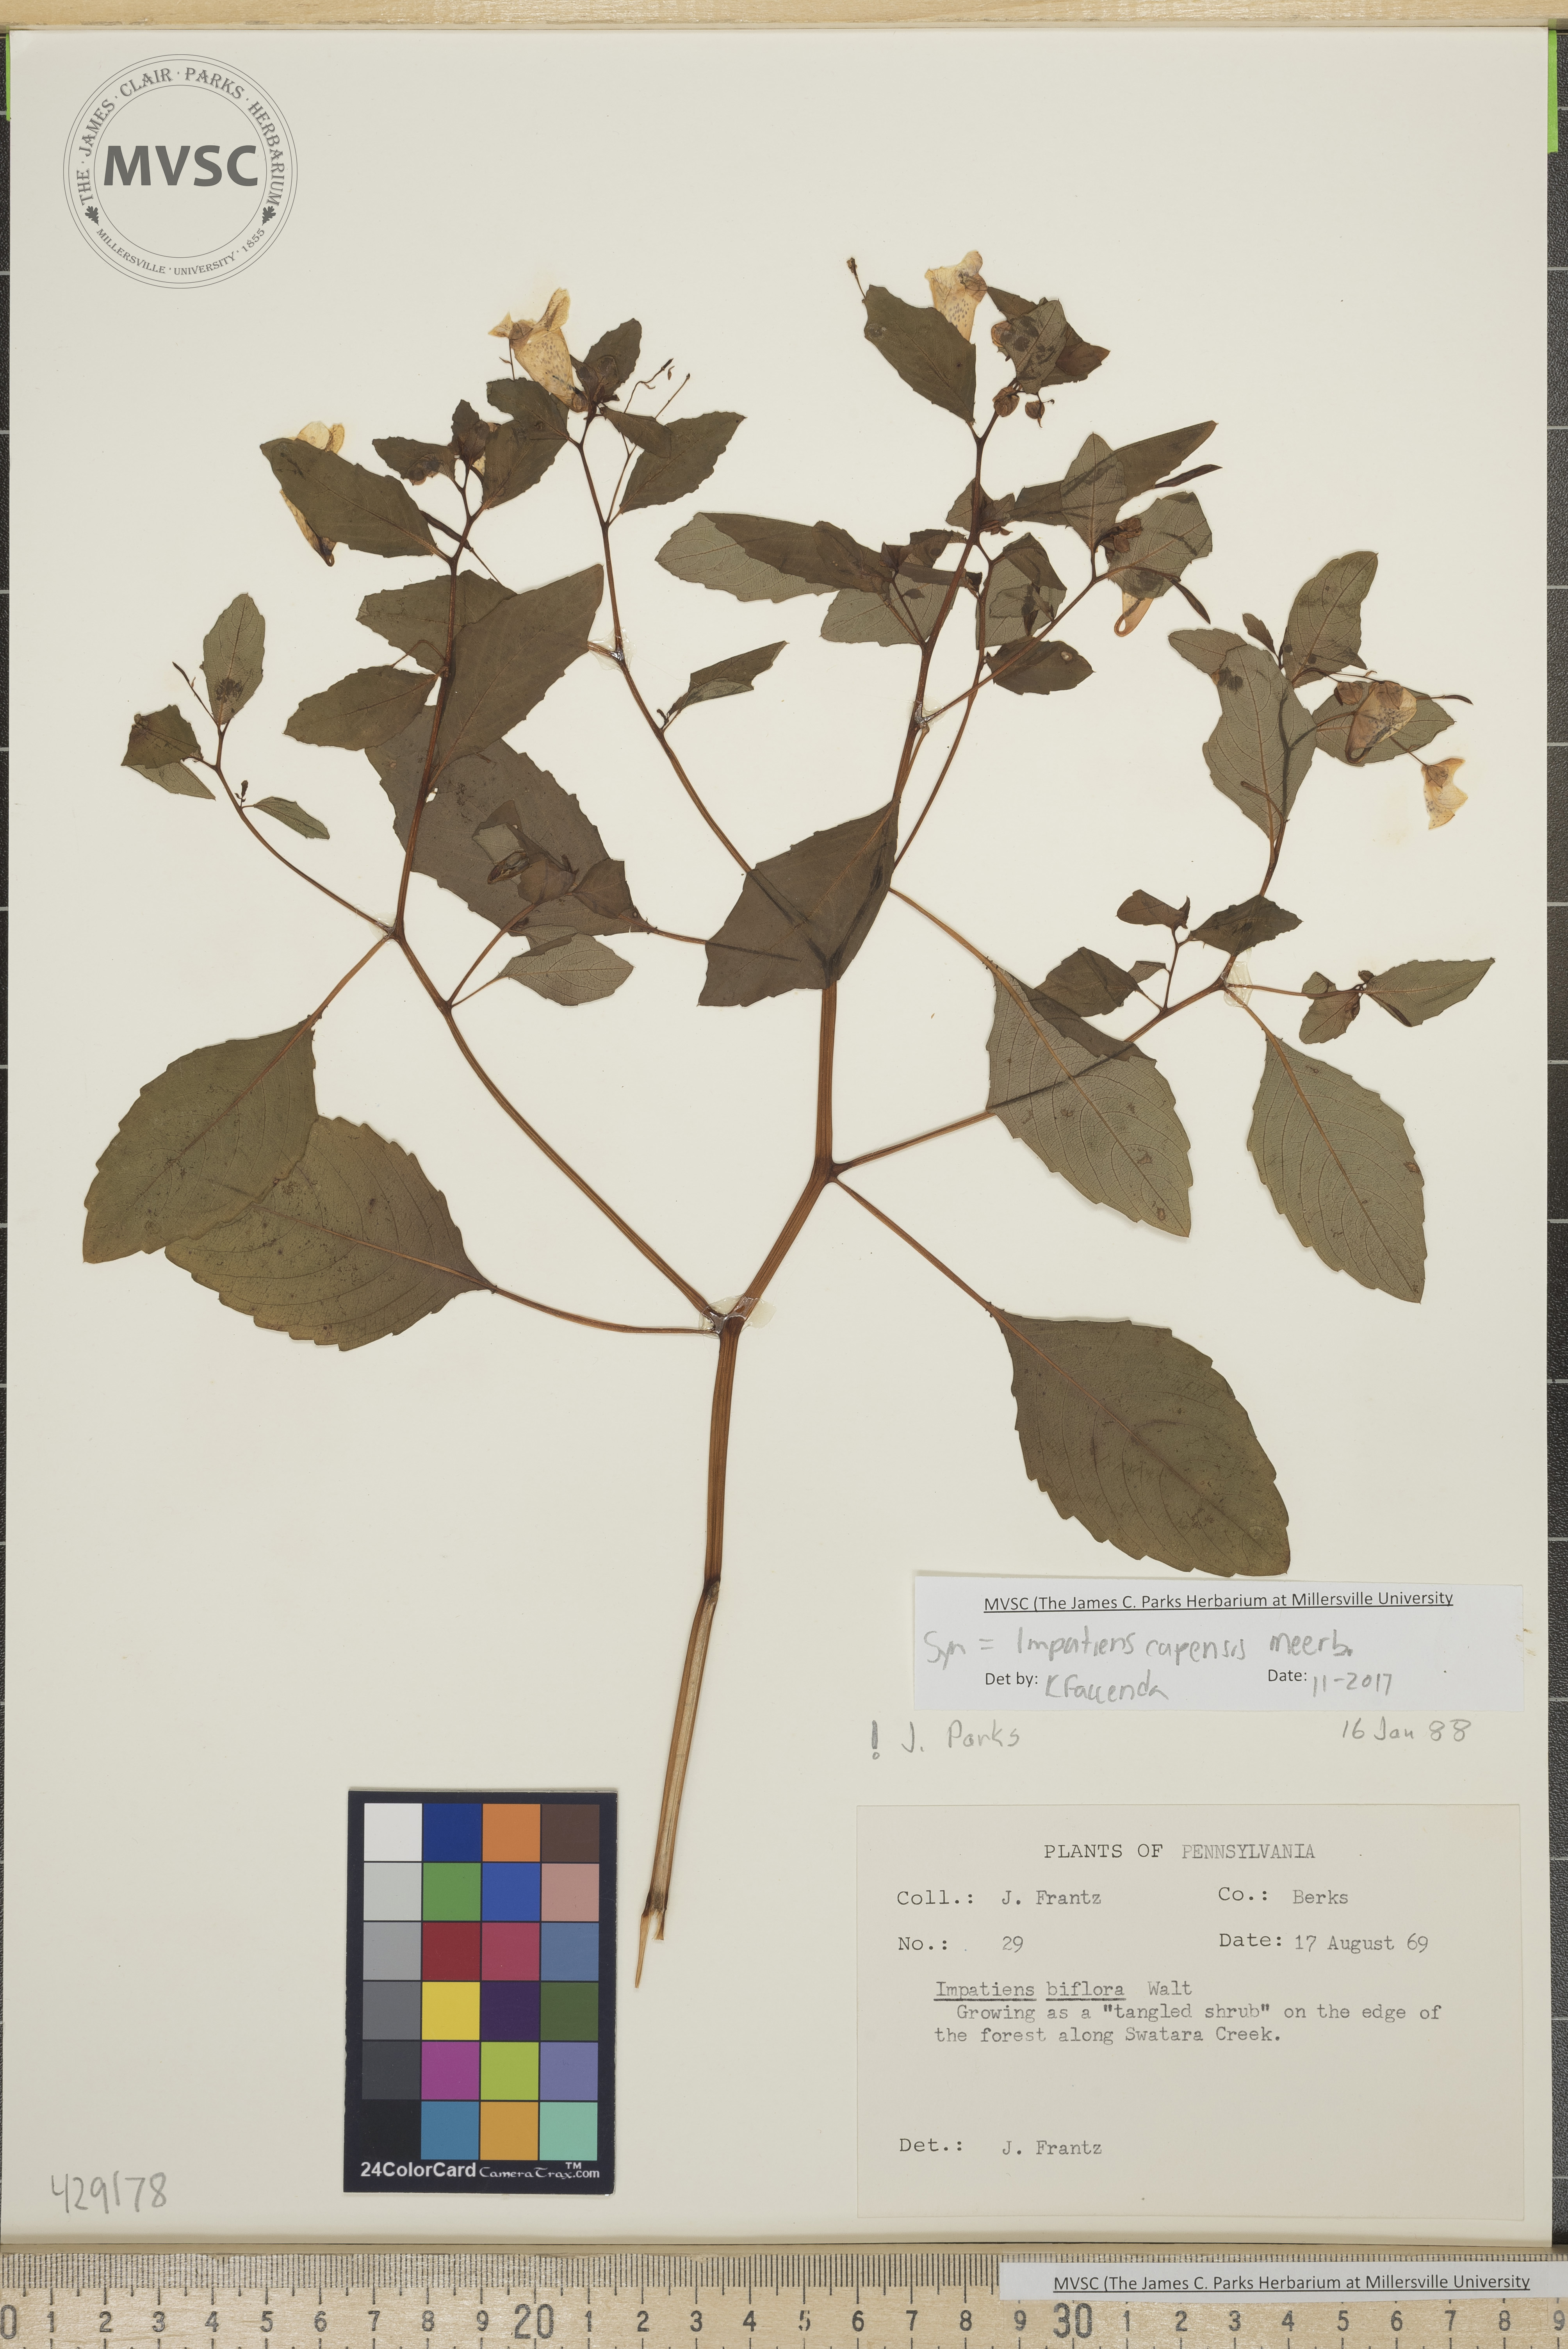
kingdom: Plantae
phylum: Tracheophyta
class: Magnoliopsida
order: Ericales
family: Balsaminaceae
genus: Impatiens
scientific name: Impatiens capensis
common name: Jewelweed
